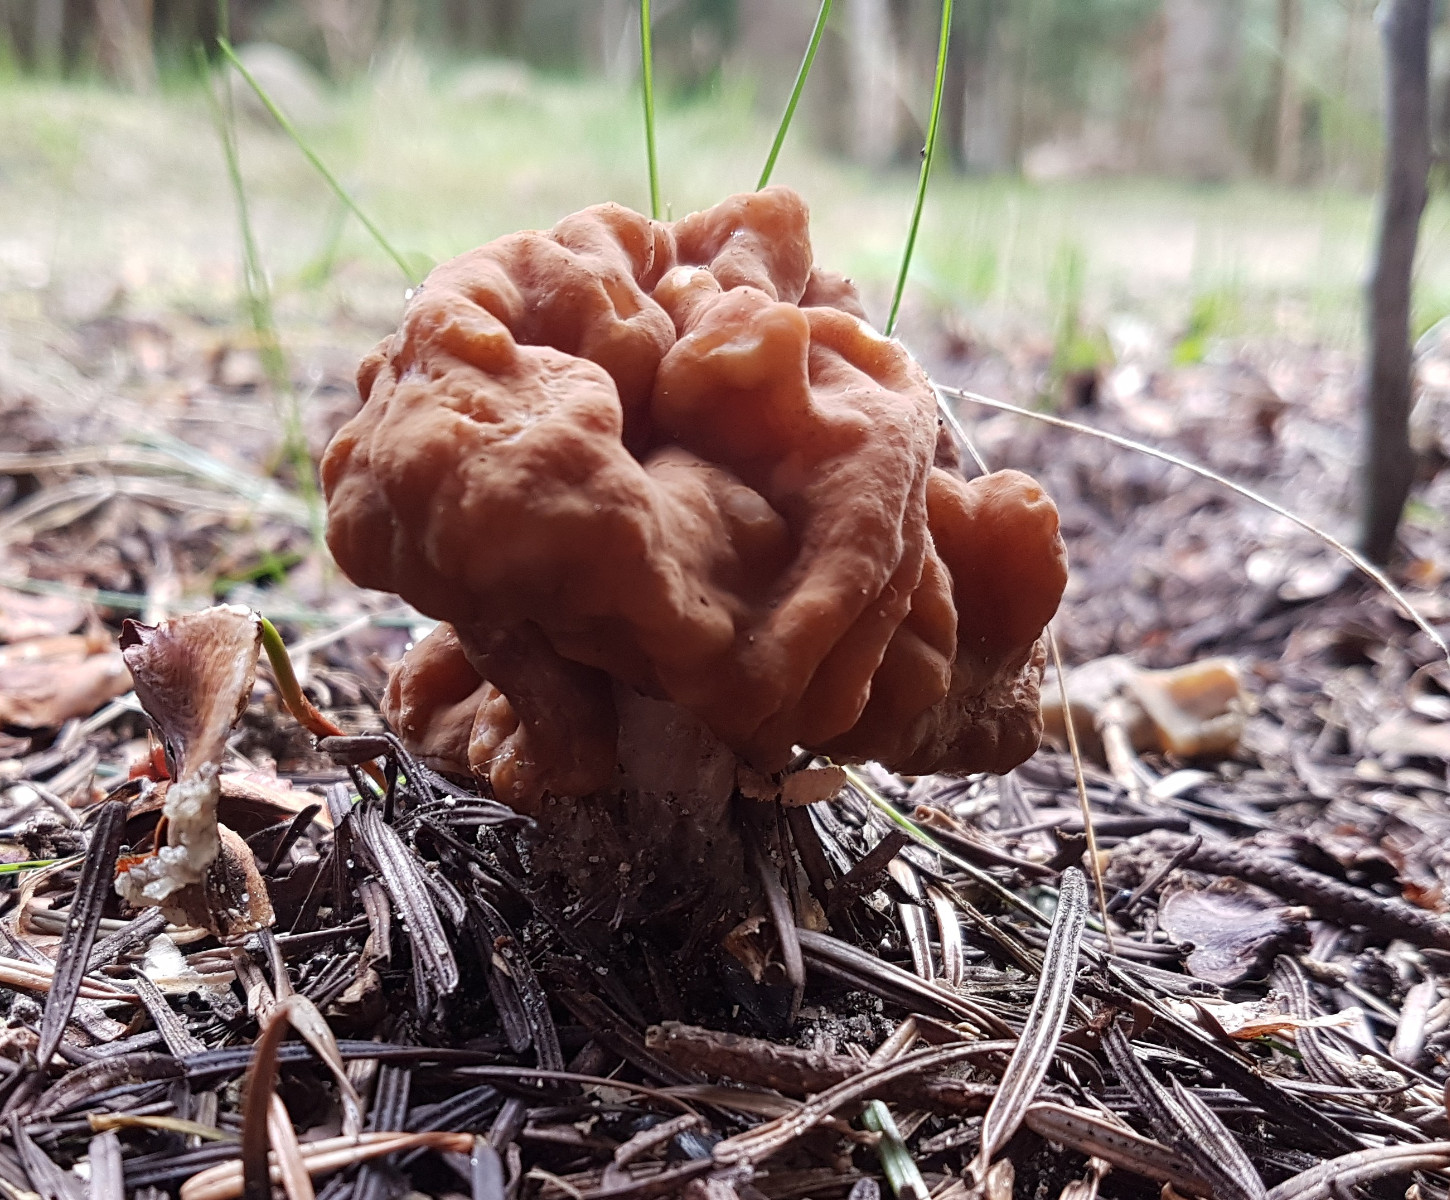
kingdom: Fungi
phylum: Ascomycota
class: Pezizomycetes
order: Pezizales
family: Discinaceae
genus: Gyromitra
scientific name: Gyromitra gigas
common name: kæmpe-stenmorkel
